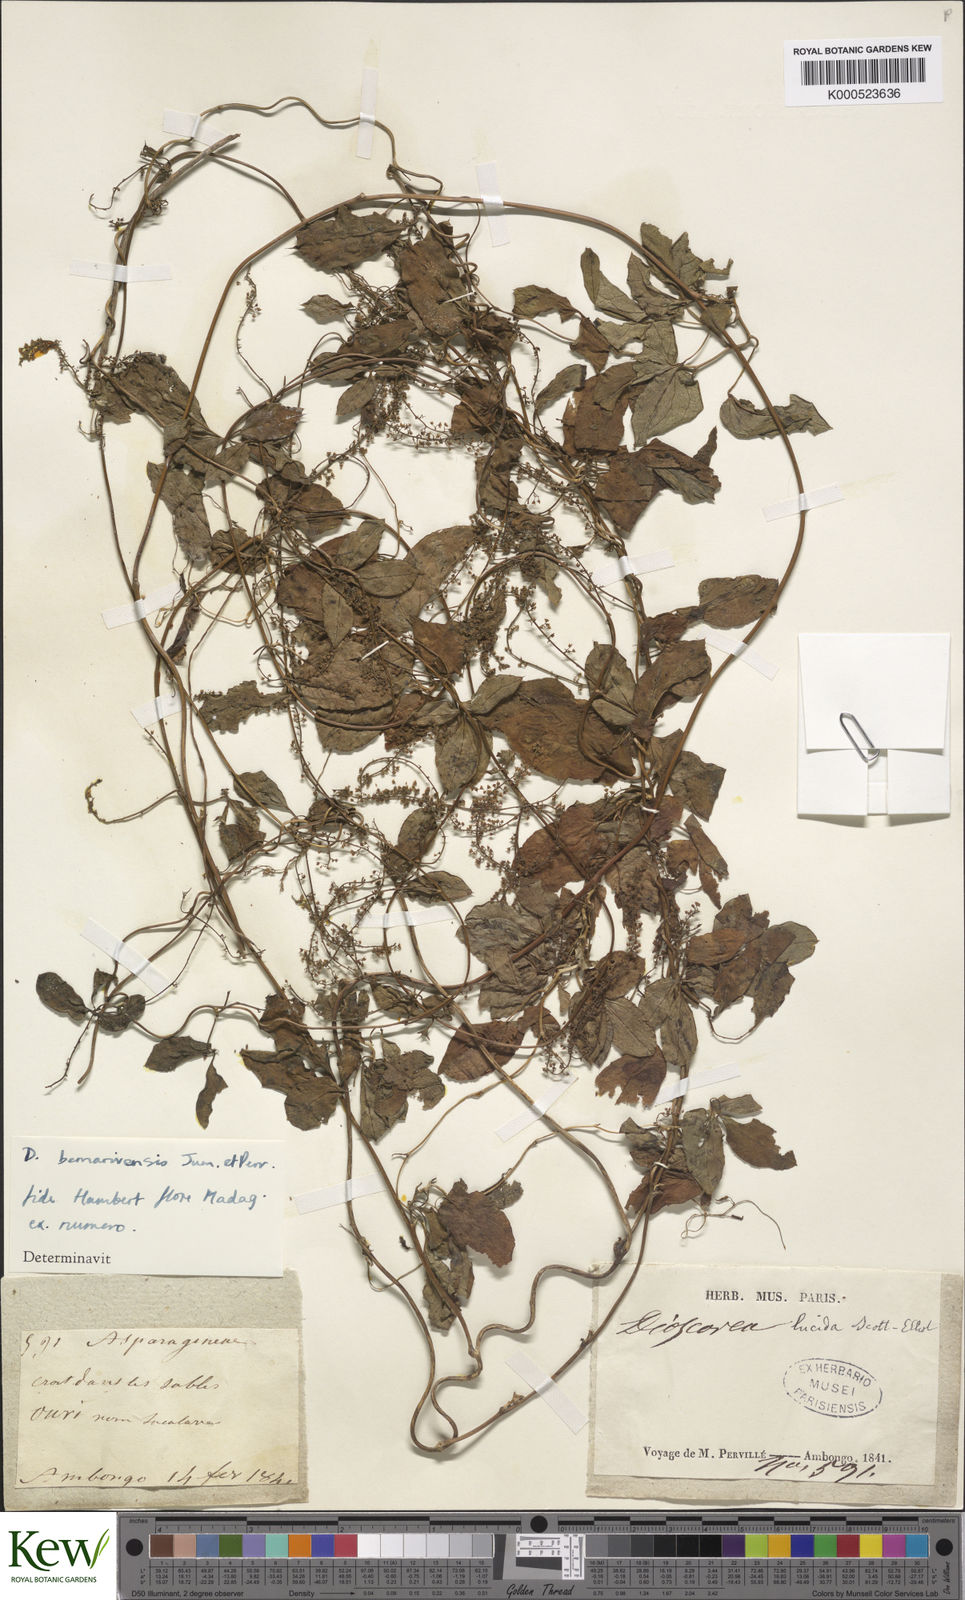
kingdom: Plantae
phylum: Tracheophyta
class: Liliopsida
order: Dioscoreales
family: Dioscoreaceae
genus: Dioscorea
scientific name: Dioscorea bemarivensis
